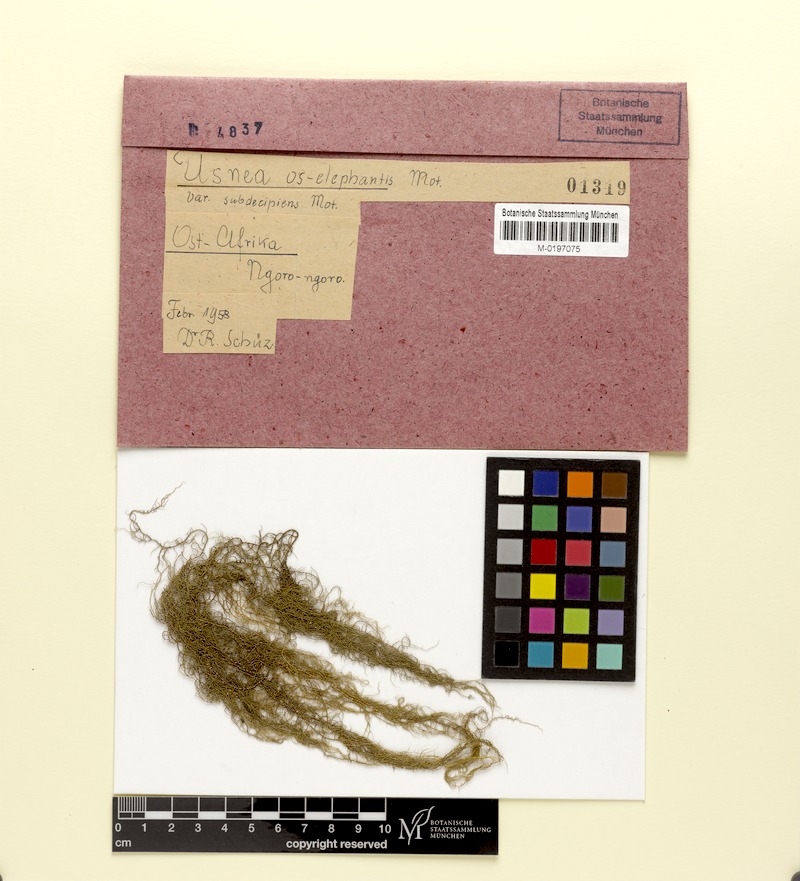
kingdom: Fungi
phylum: Ascomycota
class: Lecanoromycetes
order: Lecanorales
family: Parmeliaceae
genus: Usnea
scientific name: Usnea os-elephantis
